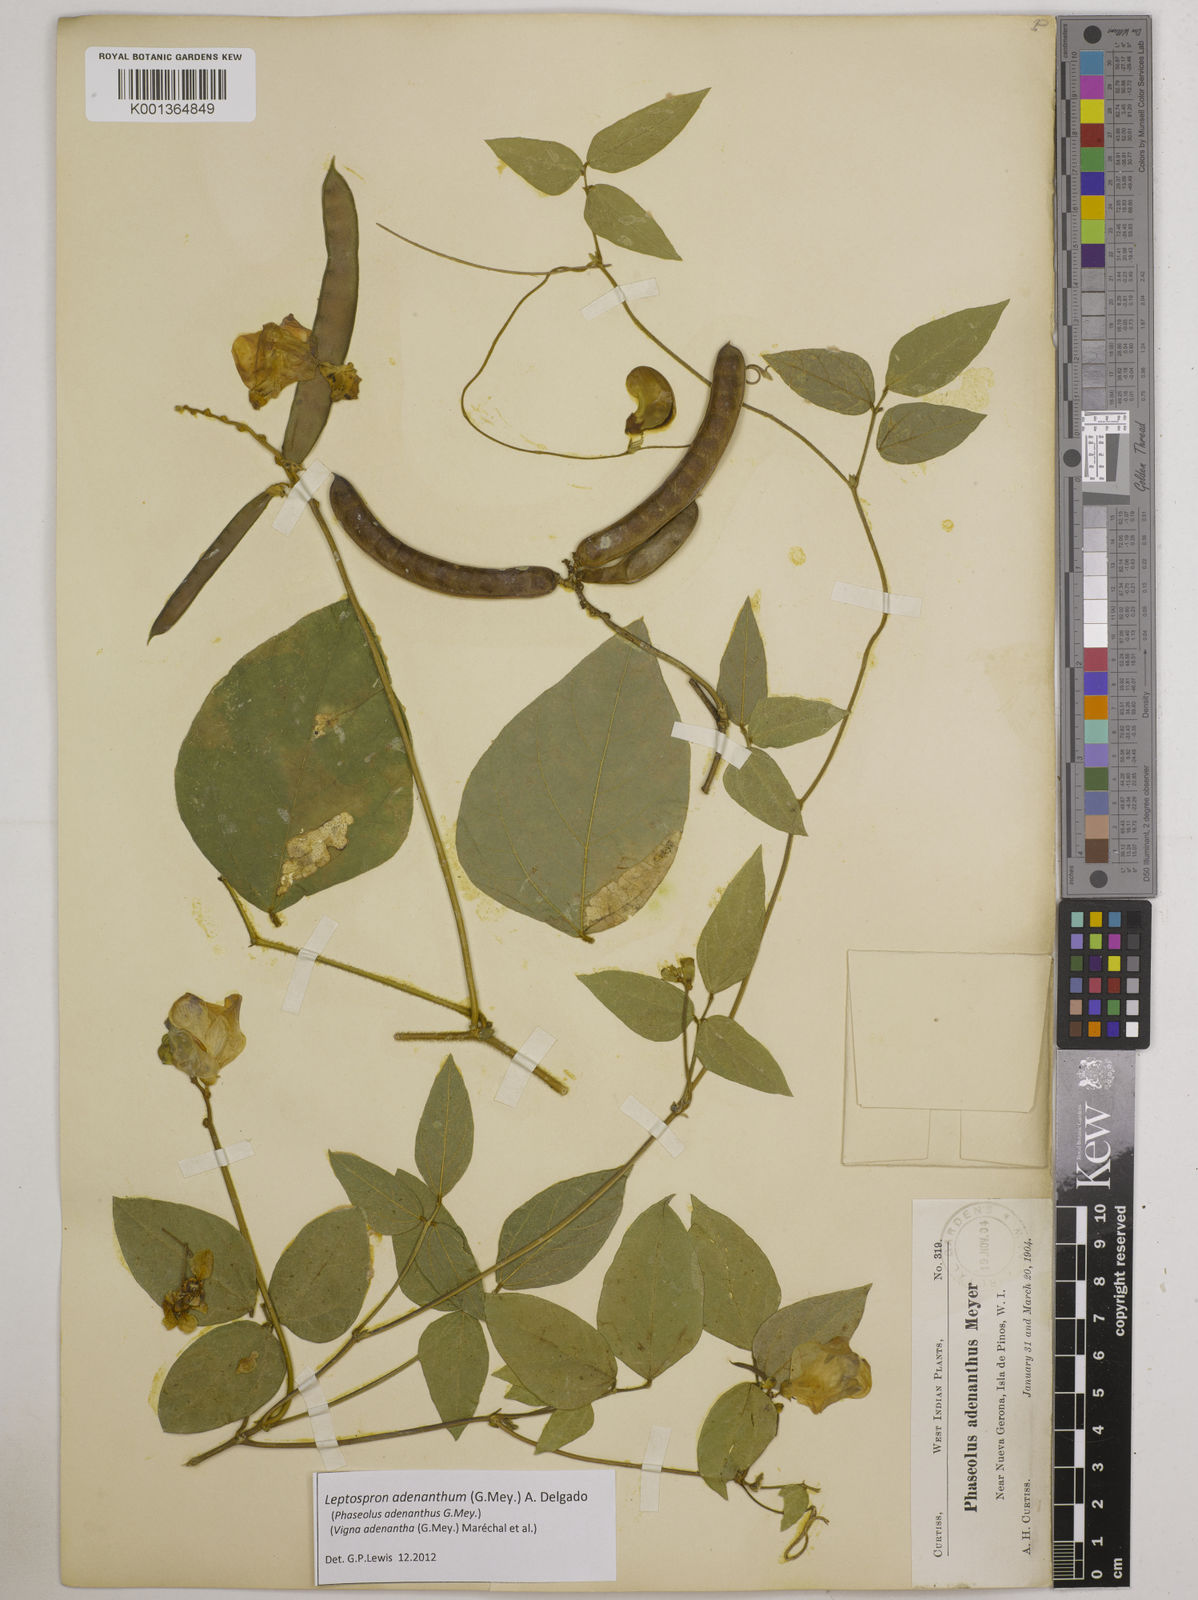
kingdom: Plantae
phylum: Tracheophyta
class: Magnoliopsida
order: Fabales
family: Fabaceae
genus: Leptospron
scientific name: Leptospron adenanthum
